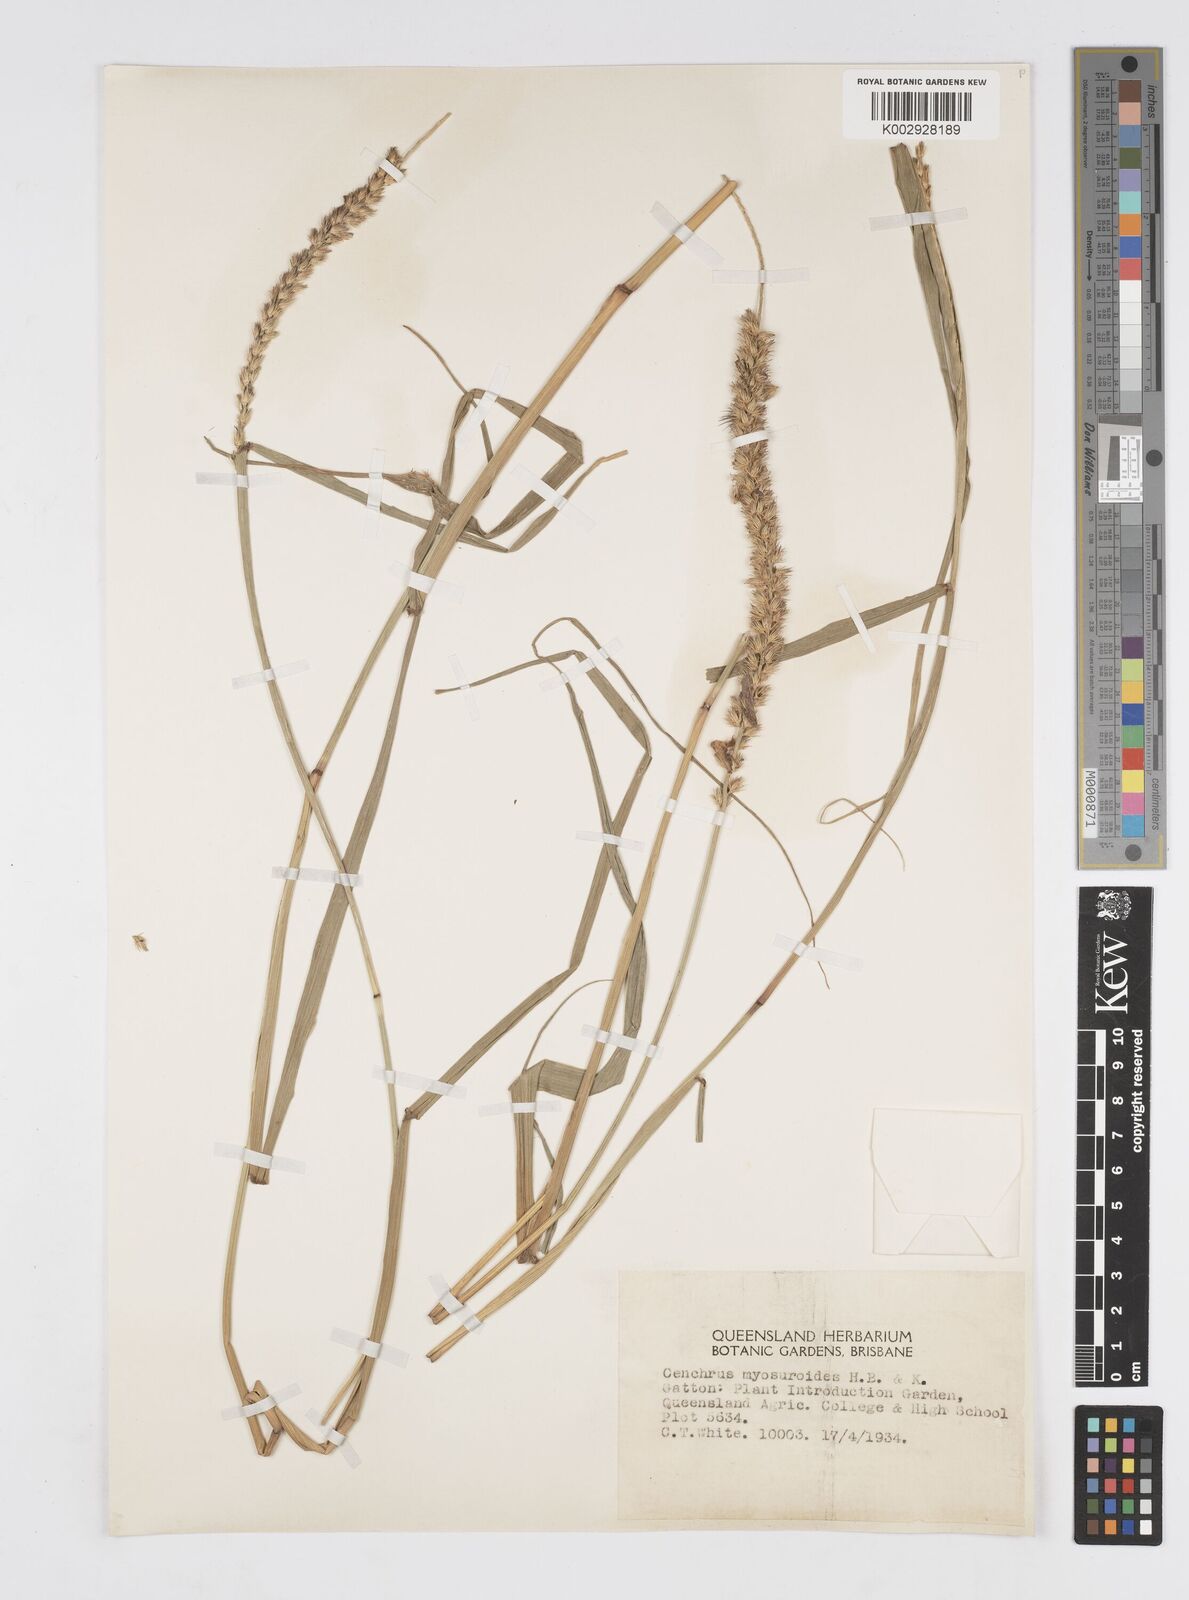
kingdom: Plantae
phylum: Tracheophyta
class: Liliopsida
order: Poales
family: Poaceae
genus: Cenchrus
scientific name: Cenchrus myosuroides
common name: Big sandbur
